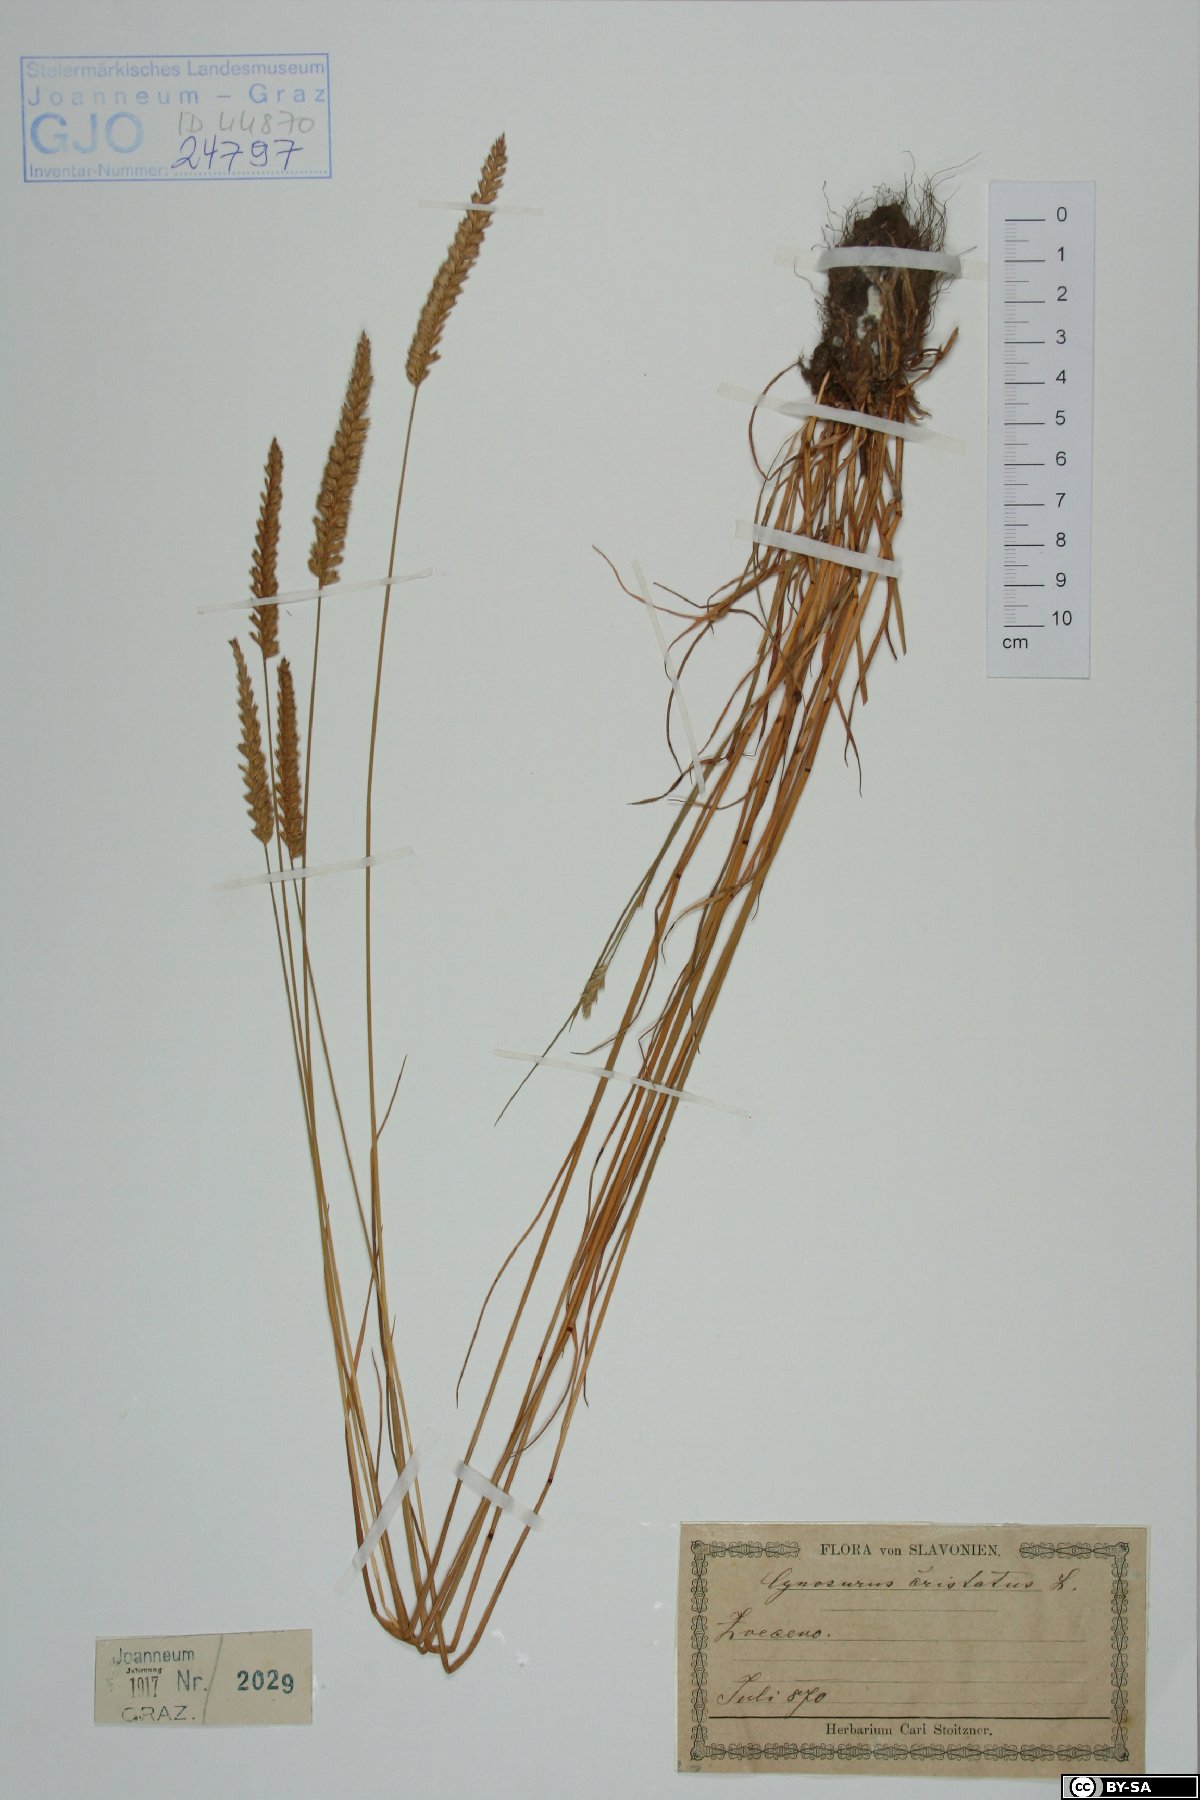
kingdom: Plantae
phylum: Tracheophyta
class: Liliopsida
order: Poales
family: Poaceae
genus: Cynosurus
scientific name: Cynosurus cristatus
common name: Crested dog's-tail
